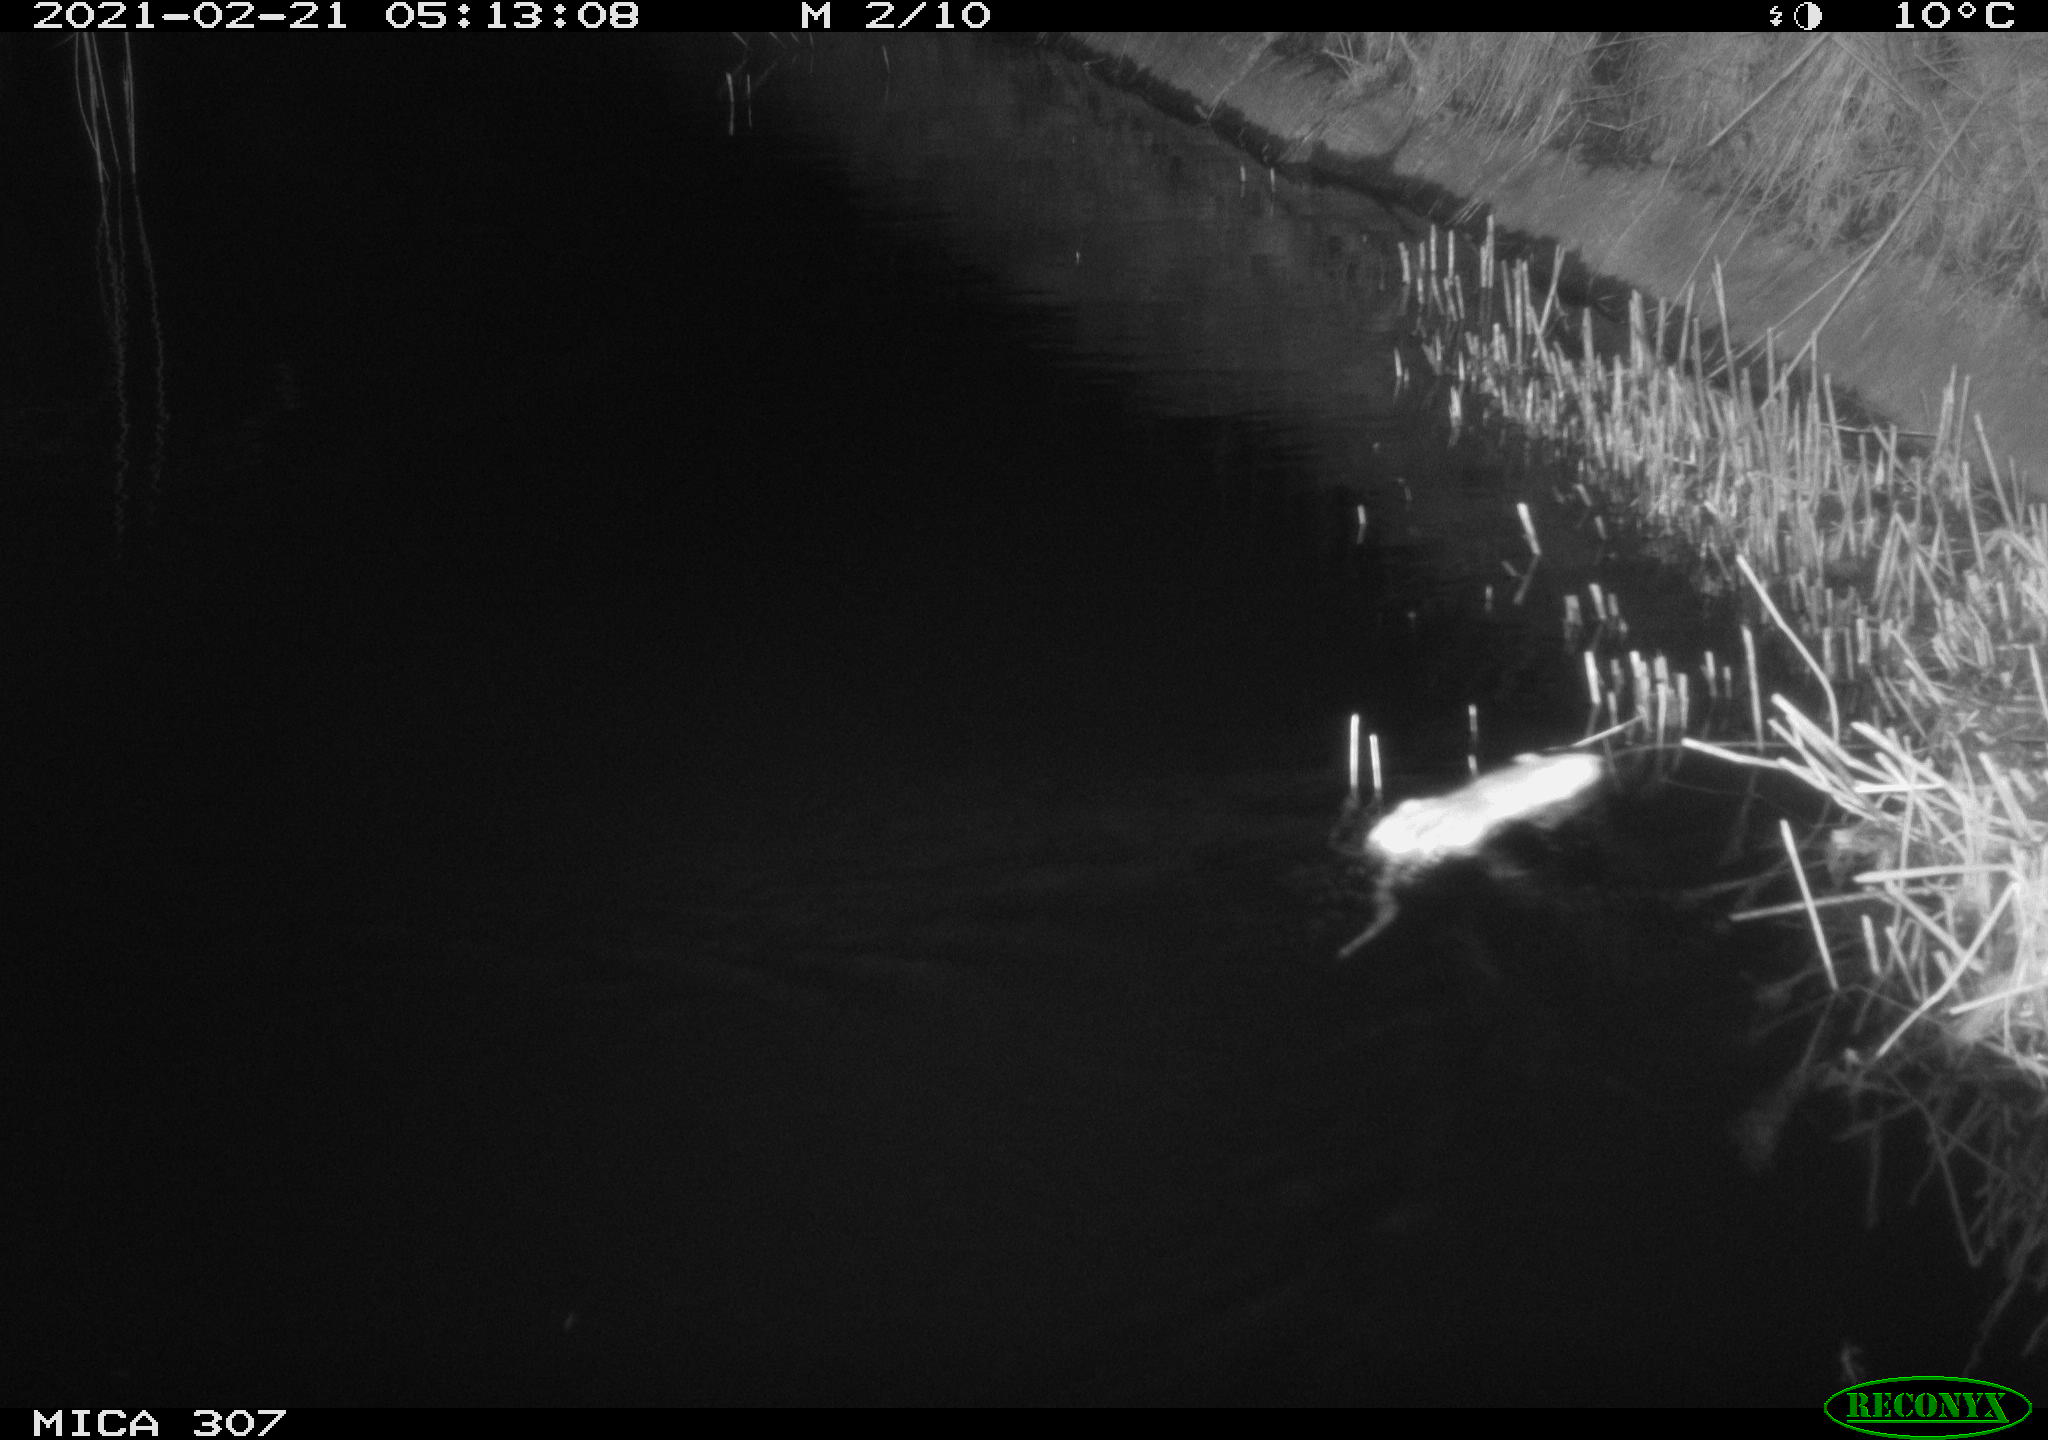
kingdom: Animalia
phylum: Chordata
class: Mammalia
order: Rodentia
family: Muridae
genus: Rattus
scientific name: Rattus norvegicus
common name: Brown rat
